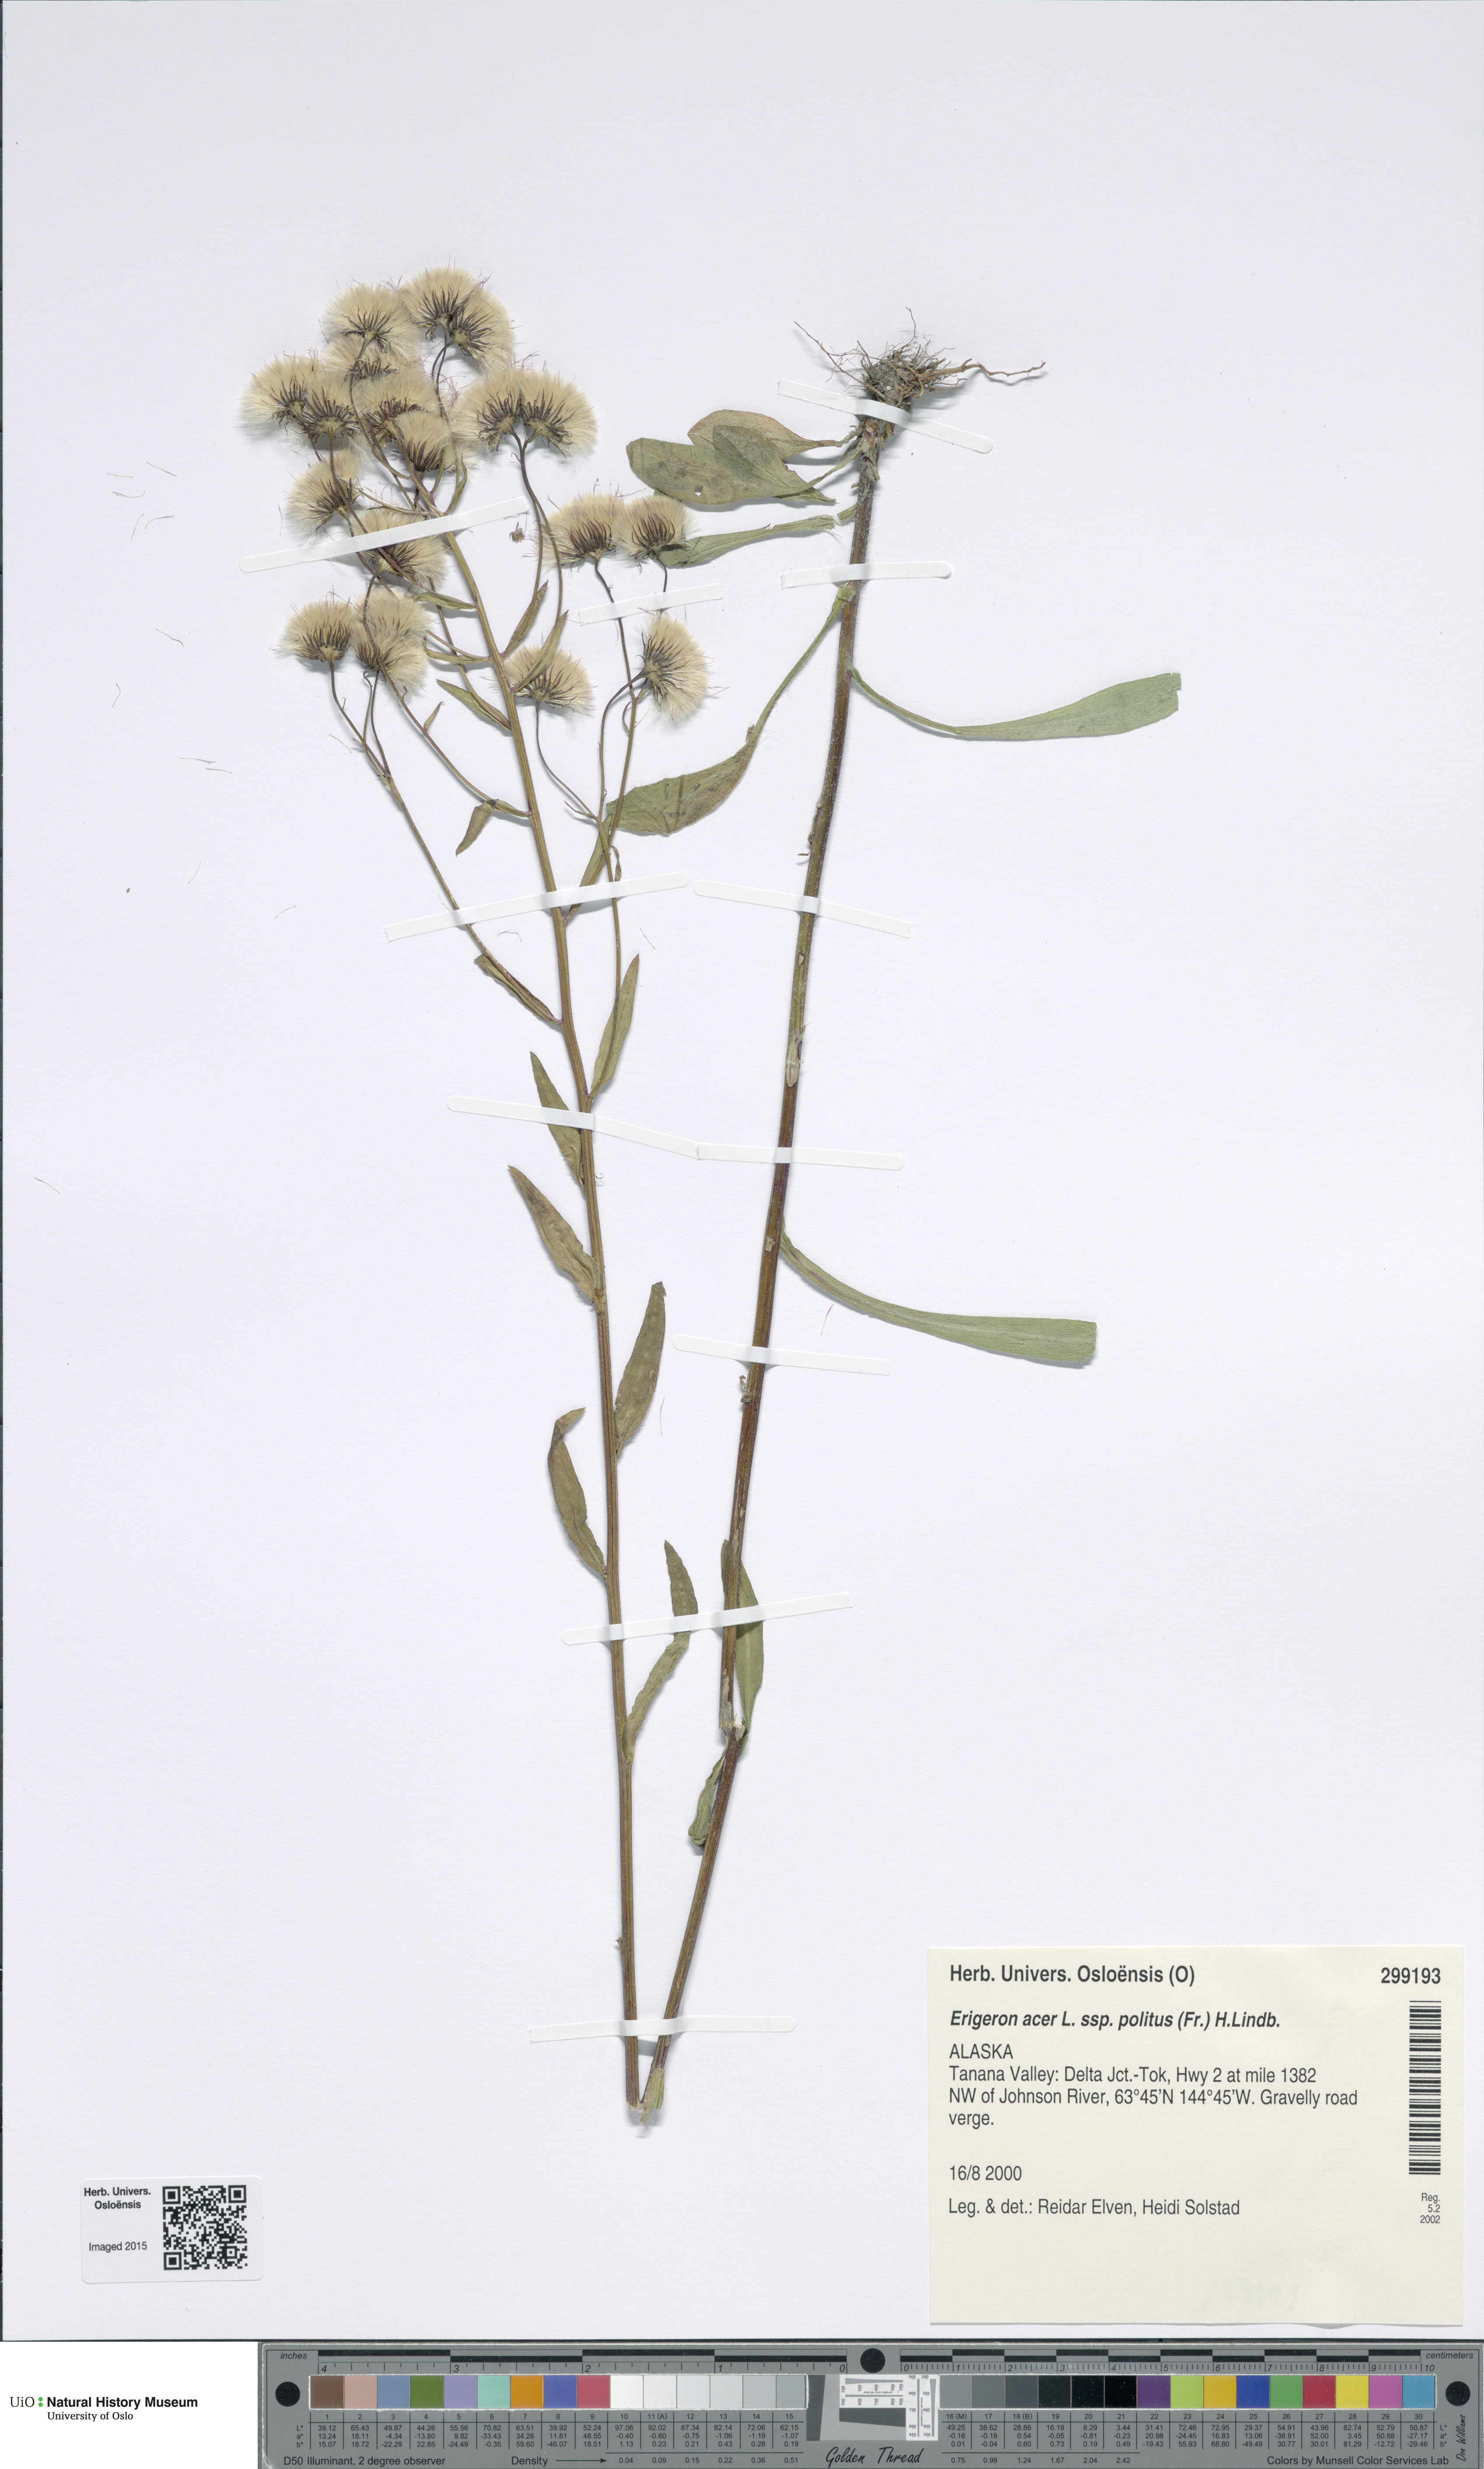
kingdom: Plantae
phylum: Tracheophyta
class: Magnoliopsida
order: Asterales
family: Asteraceae
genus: Erigeron
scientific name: Erigeron politus
